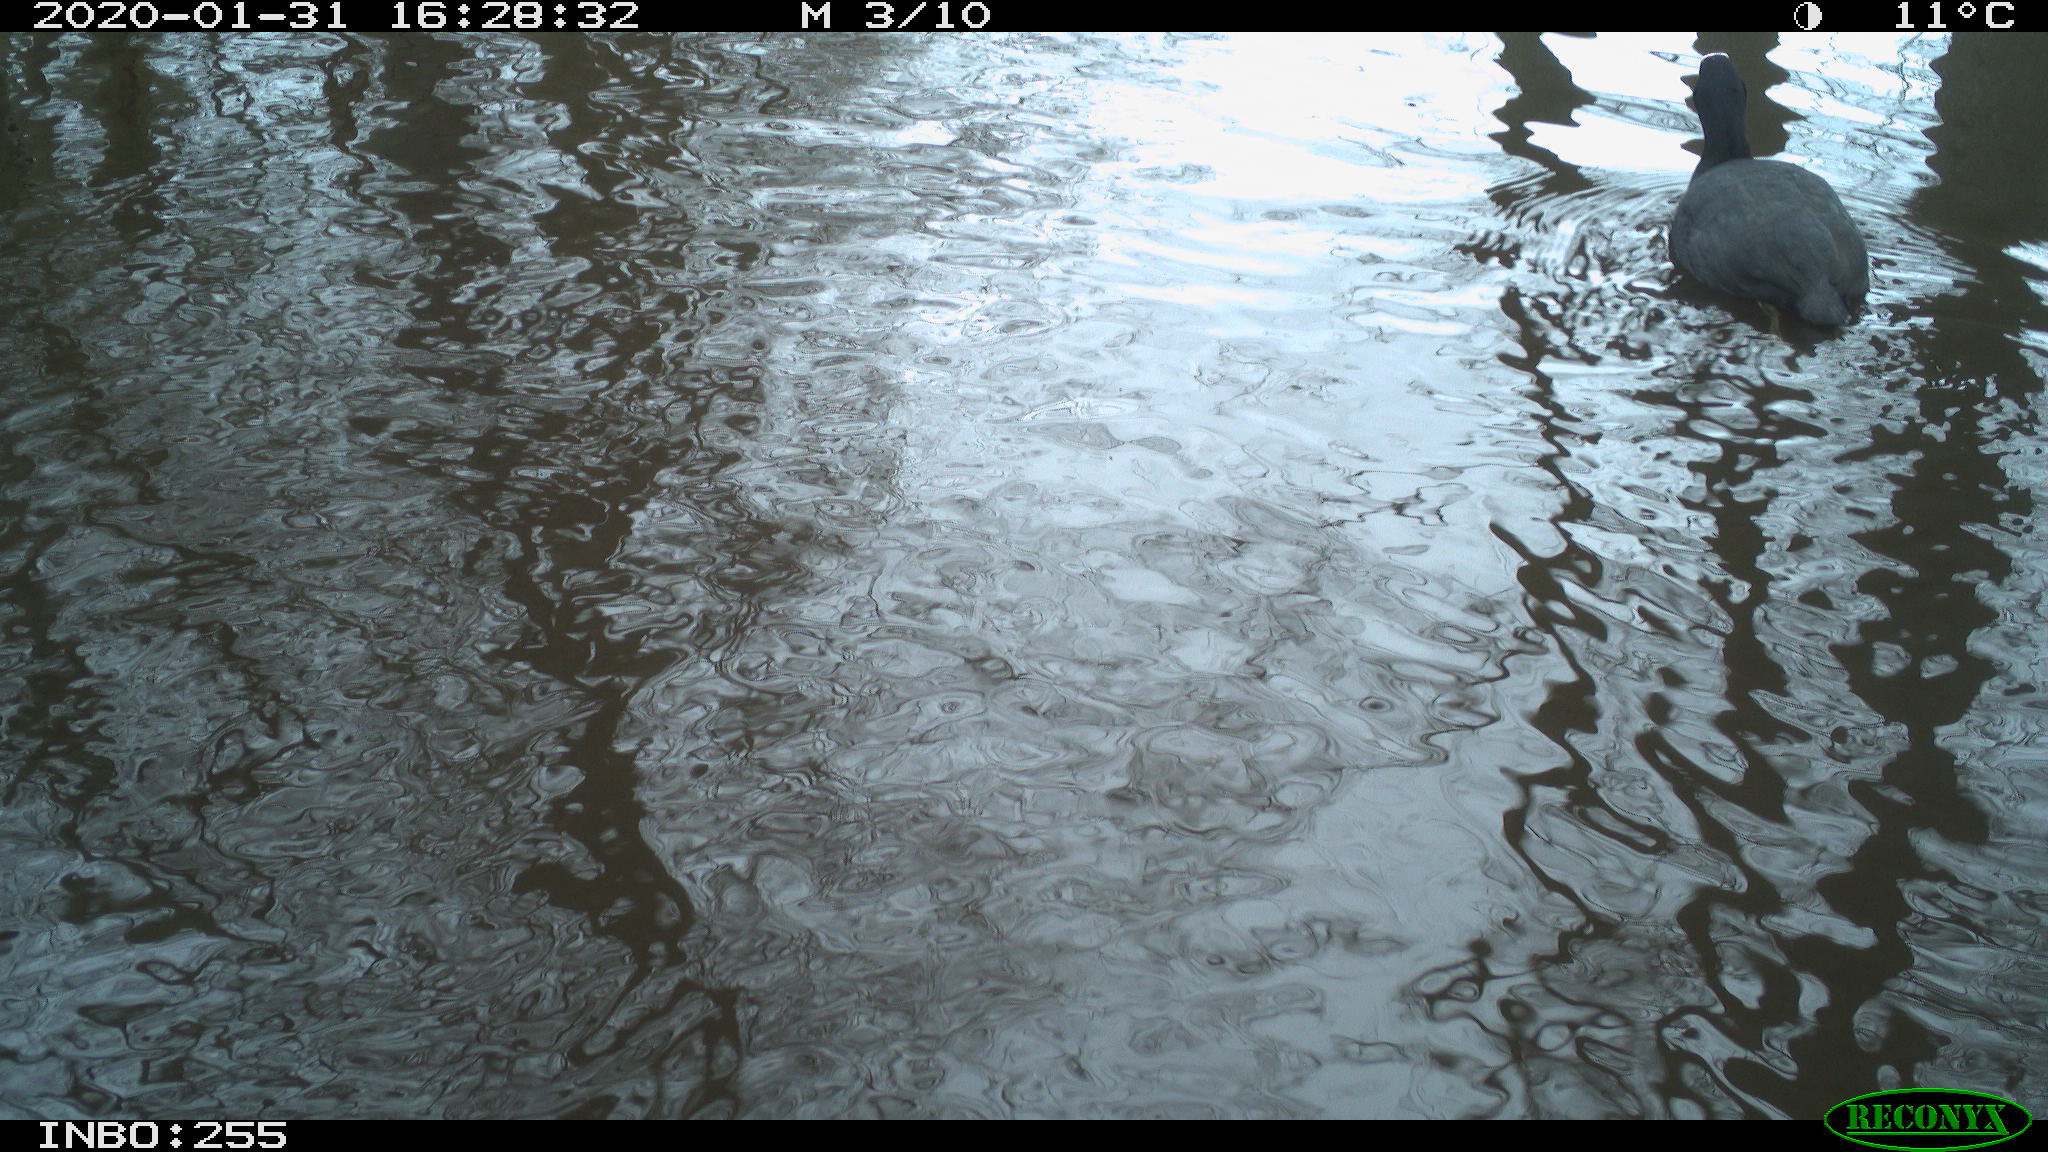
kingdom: Animalia
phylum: Chordata
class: Aves
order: Gruiformes
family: Rallidae
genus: Fulica
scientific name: Fulica atra
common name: Eurasian coot
